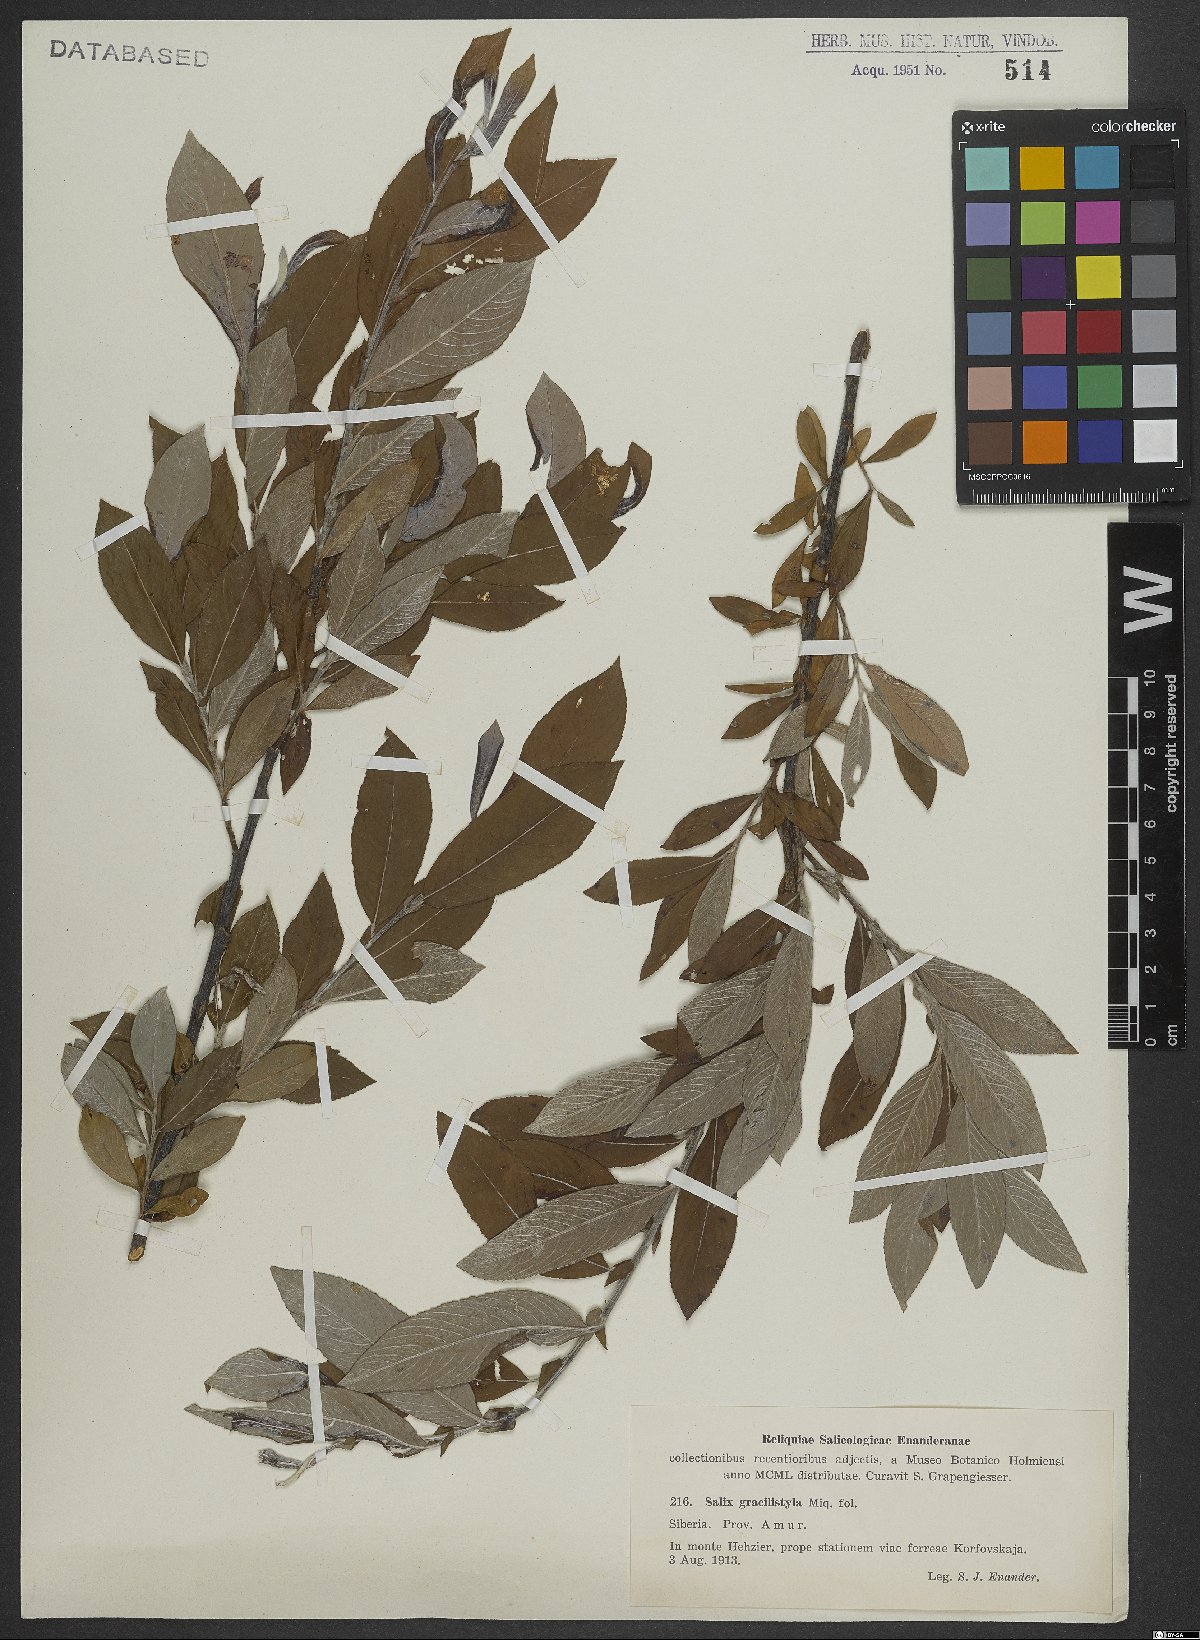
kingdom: Plantae
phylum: Tracheophyta
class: Magnoliopsida
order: Malpighiales
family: Salicaceae
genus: Salix
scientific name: Salix gracilistyla
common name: Rose-gold pussy willow
